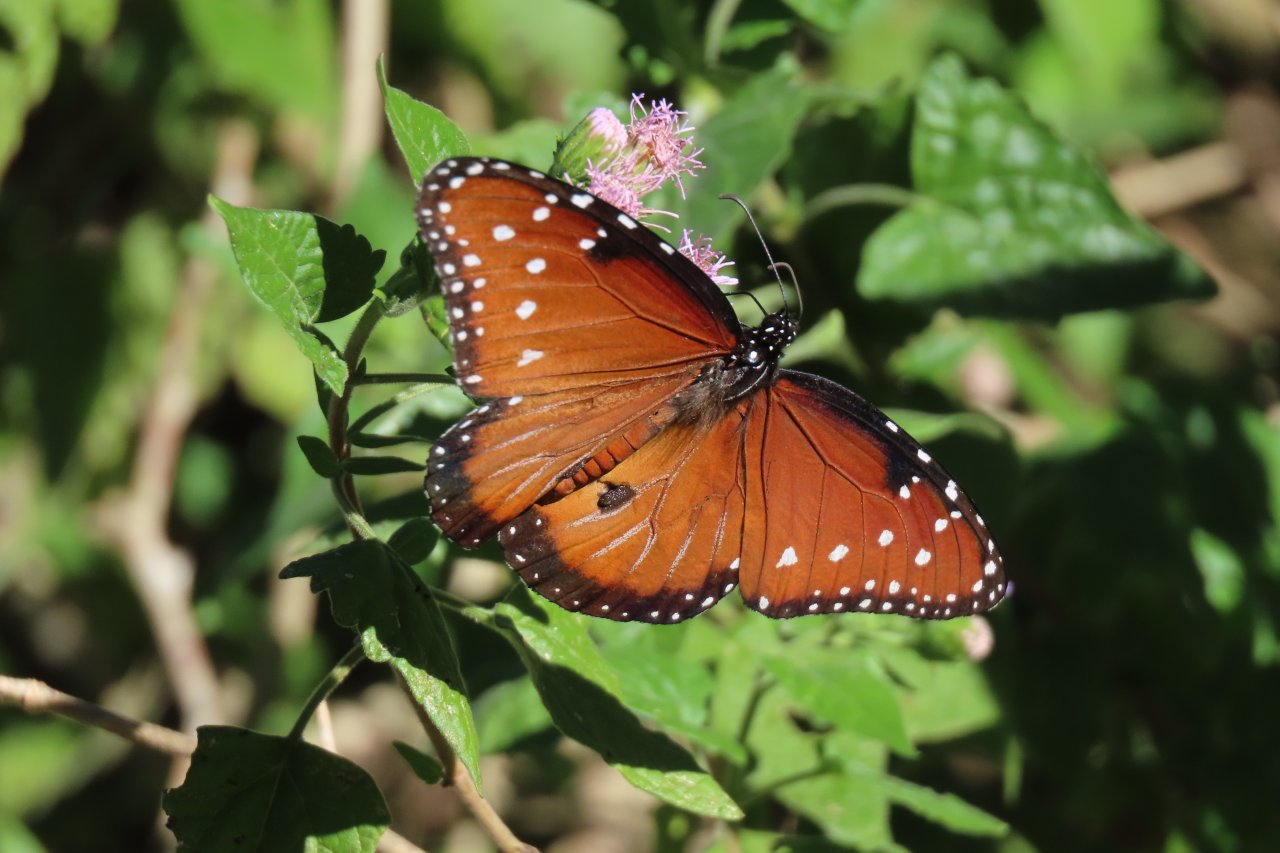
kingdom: Animalia
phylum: Arthropoda
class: Insecta
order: Lepidoptera
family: Nymphalidae
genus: Danaus
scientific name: Danaus gilippus
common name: Queen
